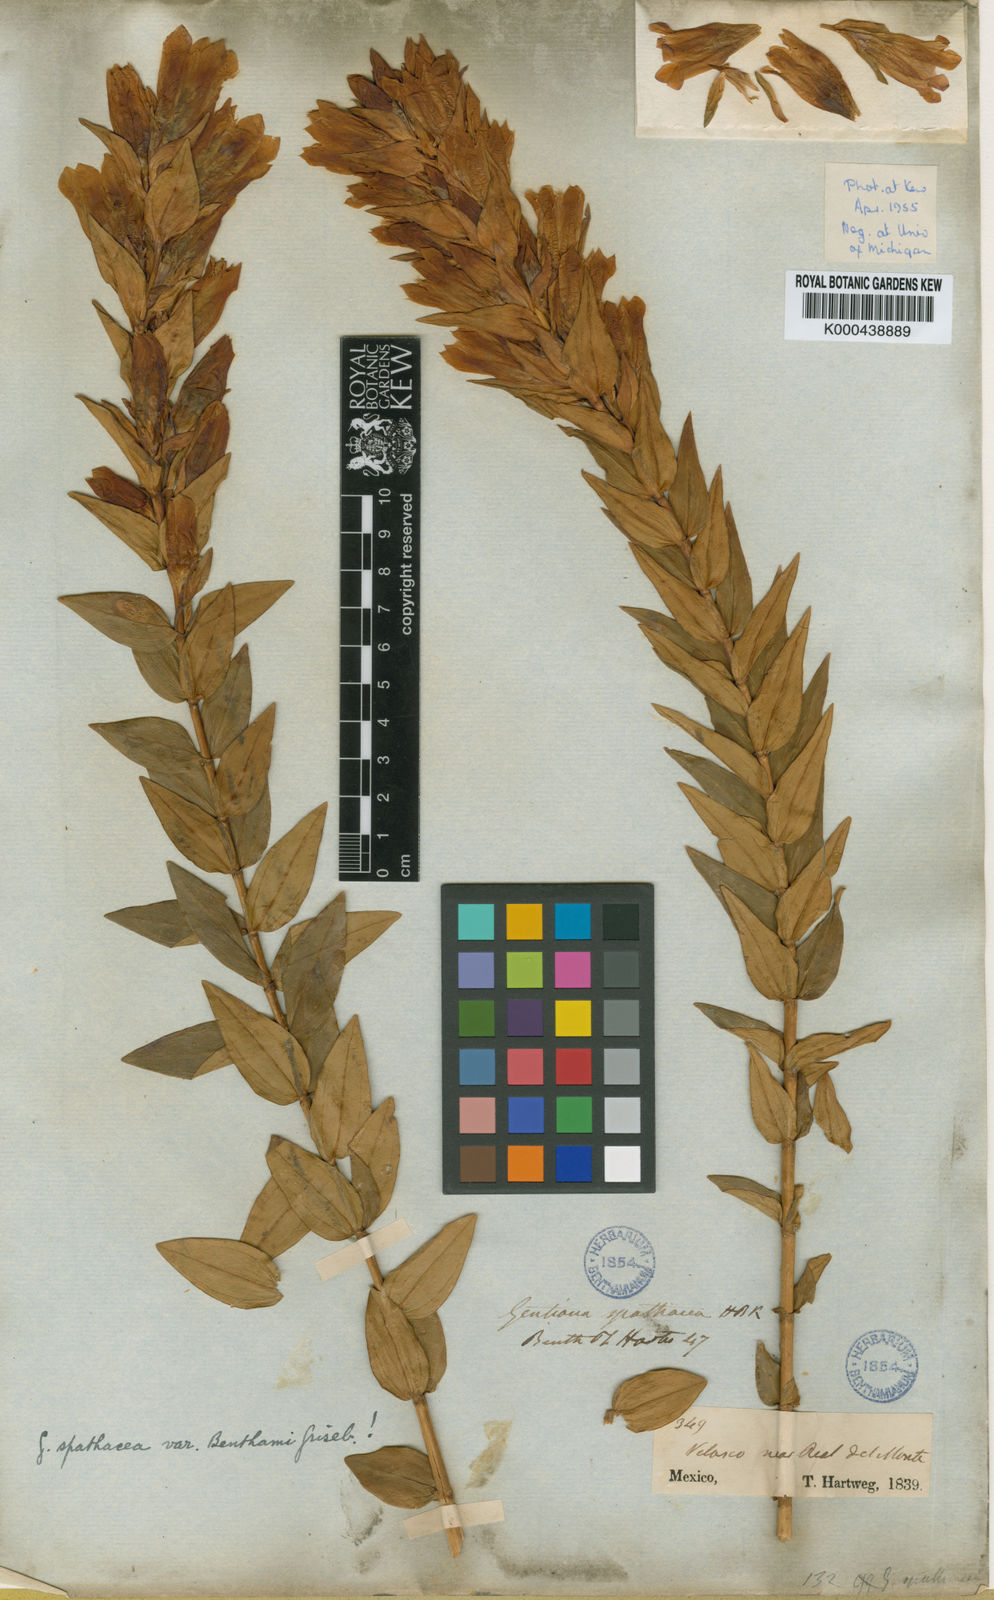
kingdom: Plantae
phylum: Tracheophyta
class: Magnoliopsida
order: Gentianales
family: Gentianaceae
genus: Gentiana
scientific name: Gentiana spathacea
